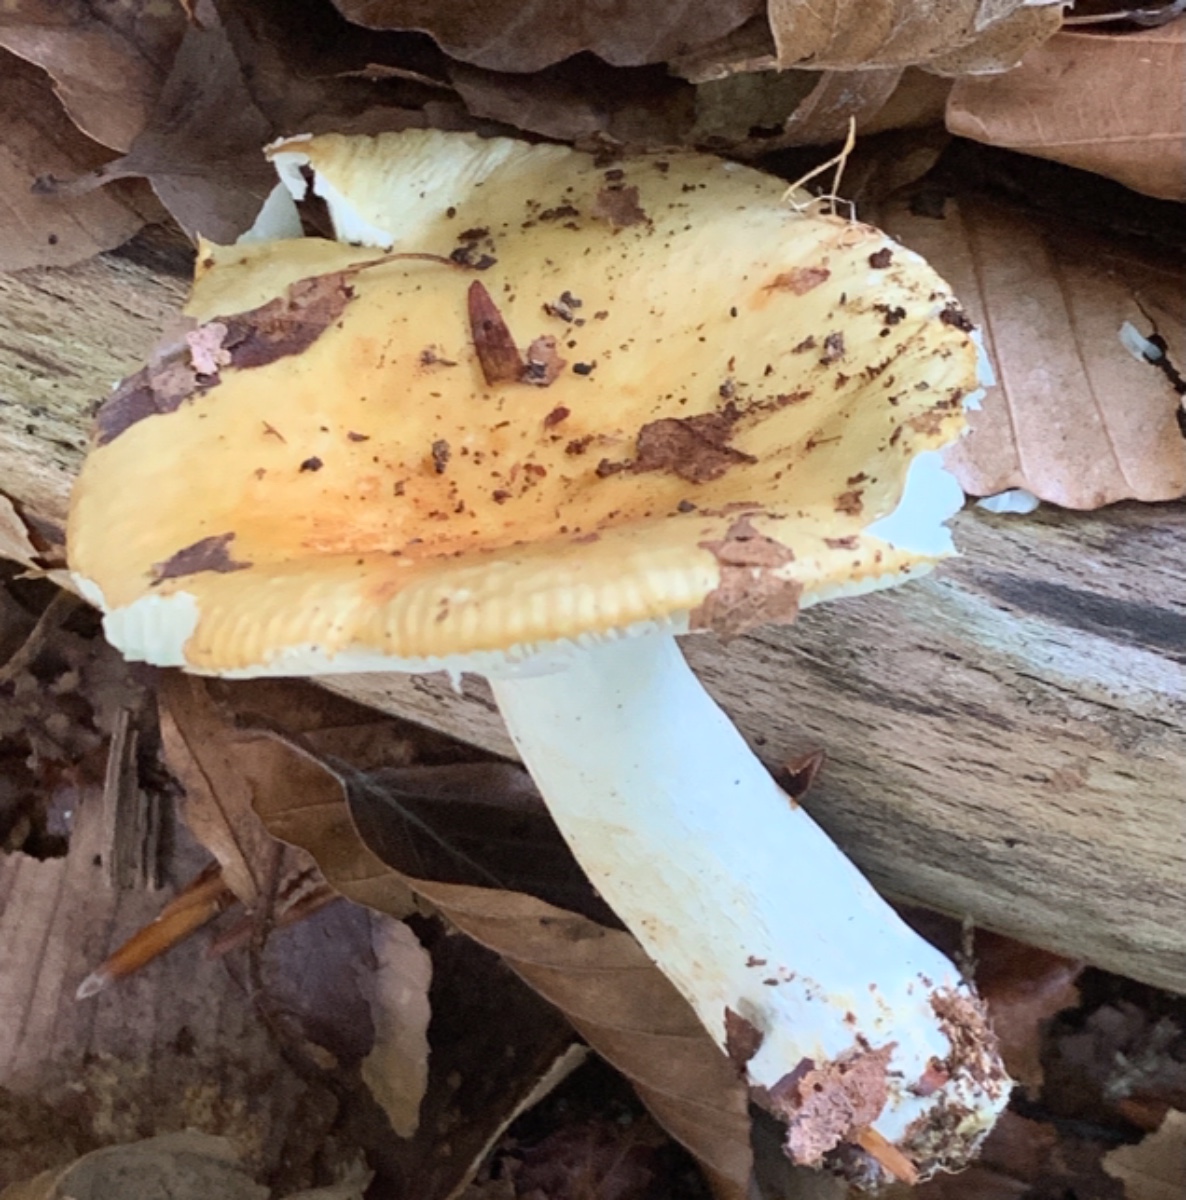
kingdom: Fungi
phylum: Basidiomycota
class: Agaricomycetes
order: Russulales
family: Russulaceae
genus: Russula
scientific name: Russula ochroleuca
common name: okkergul skørhat
